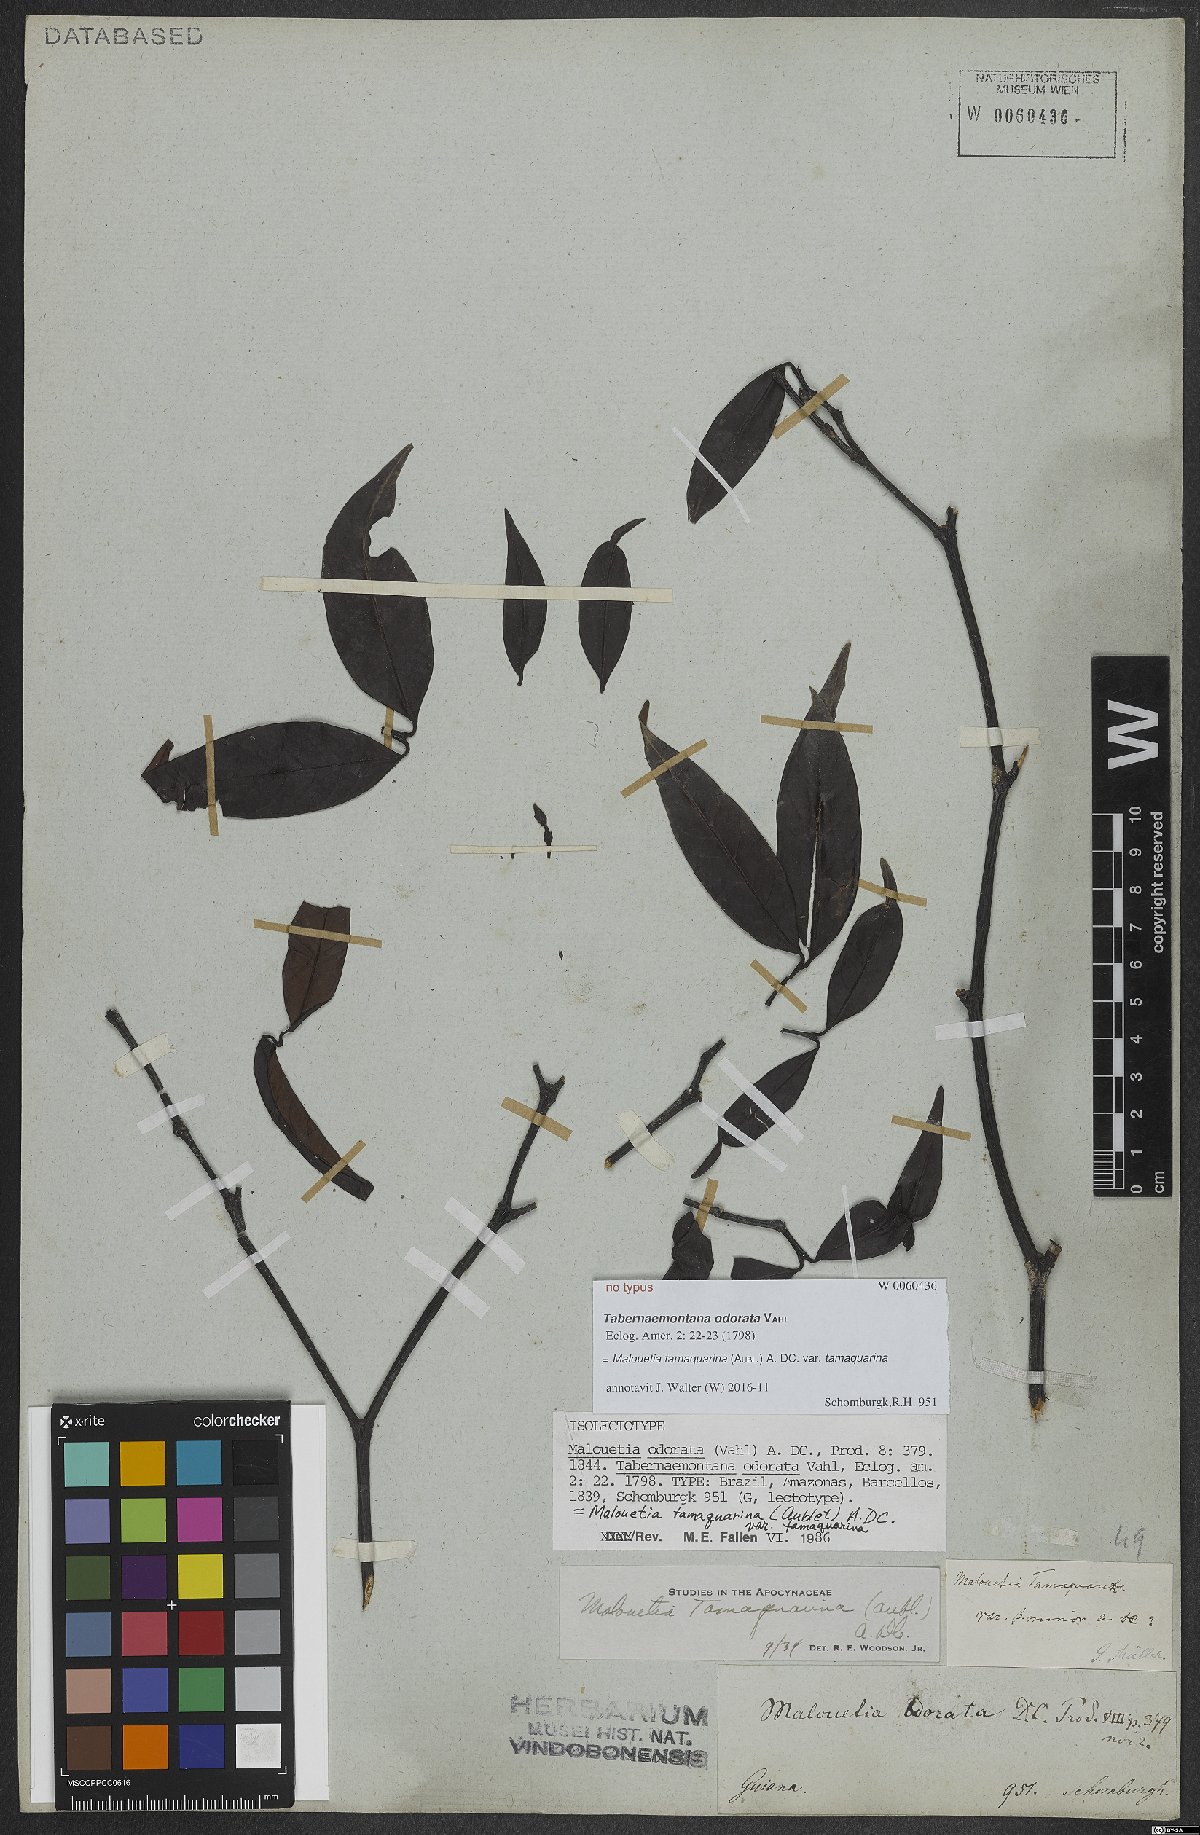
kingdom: Plantae
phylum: Tracheophyta
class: Magnoliopsida
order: Gentianales
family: Apocynaceae
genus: Malouetia
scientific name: Malouetia tamaquarina
